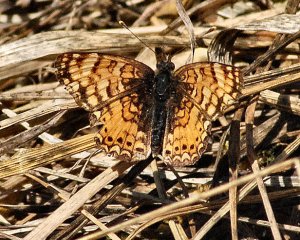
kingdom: Animalia
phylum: Arthropoda
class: Insecta
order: Lepidoptera
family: Nymphalidae
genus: Eresia
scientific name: Eresia aveyrona
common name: Mylitta Crescent
